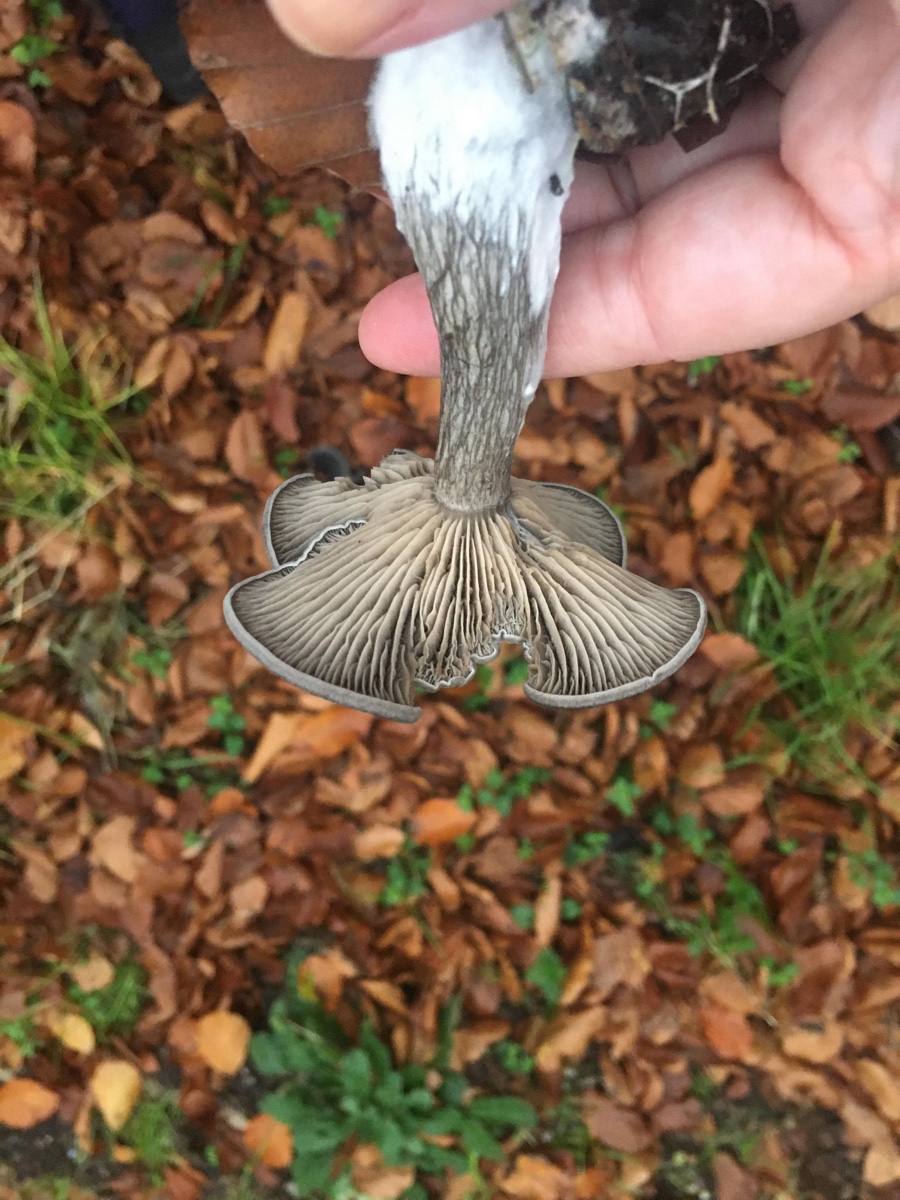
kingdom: Fungi
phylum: Basidiomycota
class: Agaricomycetes
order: Agaricales
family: Pseudoclitocybaceae
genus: Pseudoclitocybe
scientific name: Pseudoclitocybe cyathiformis
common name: almindelig bægertragthat
